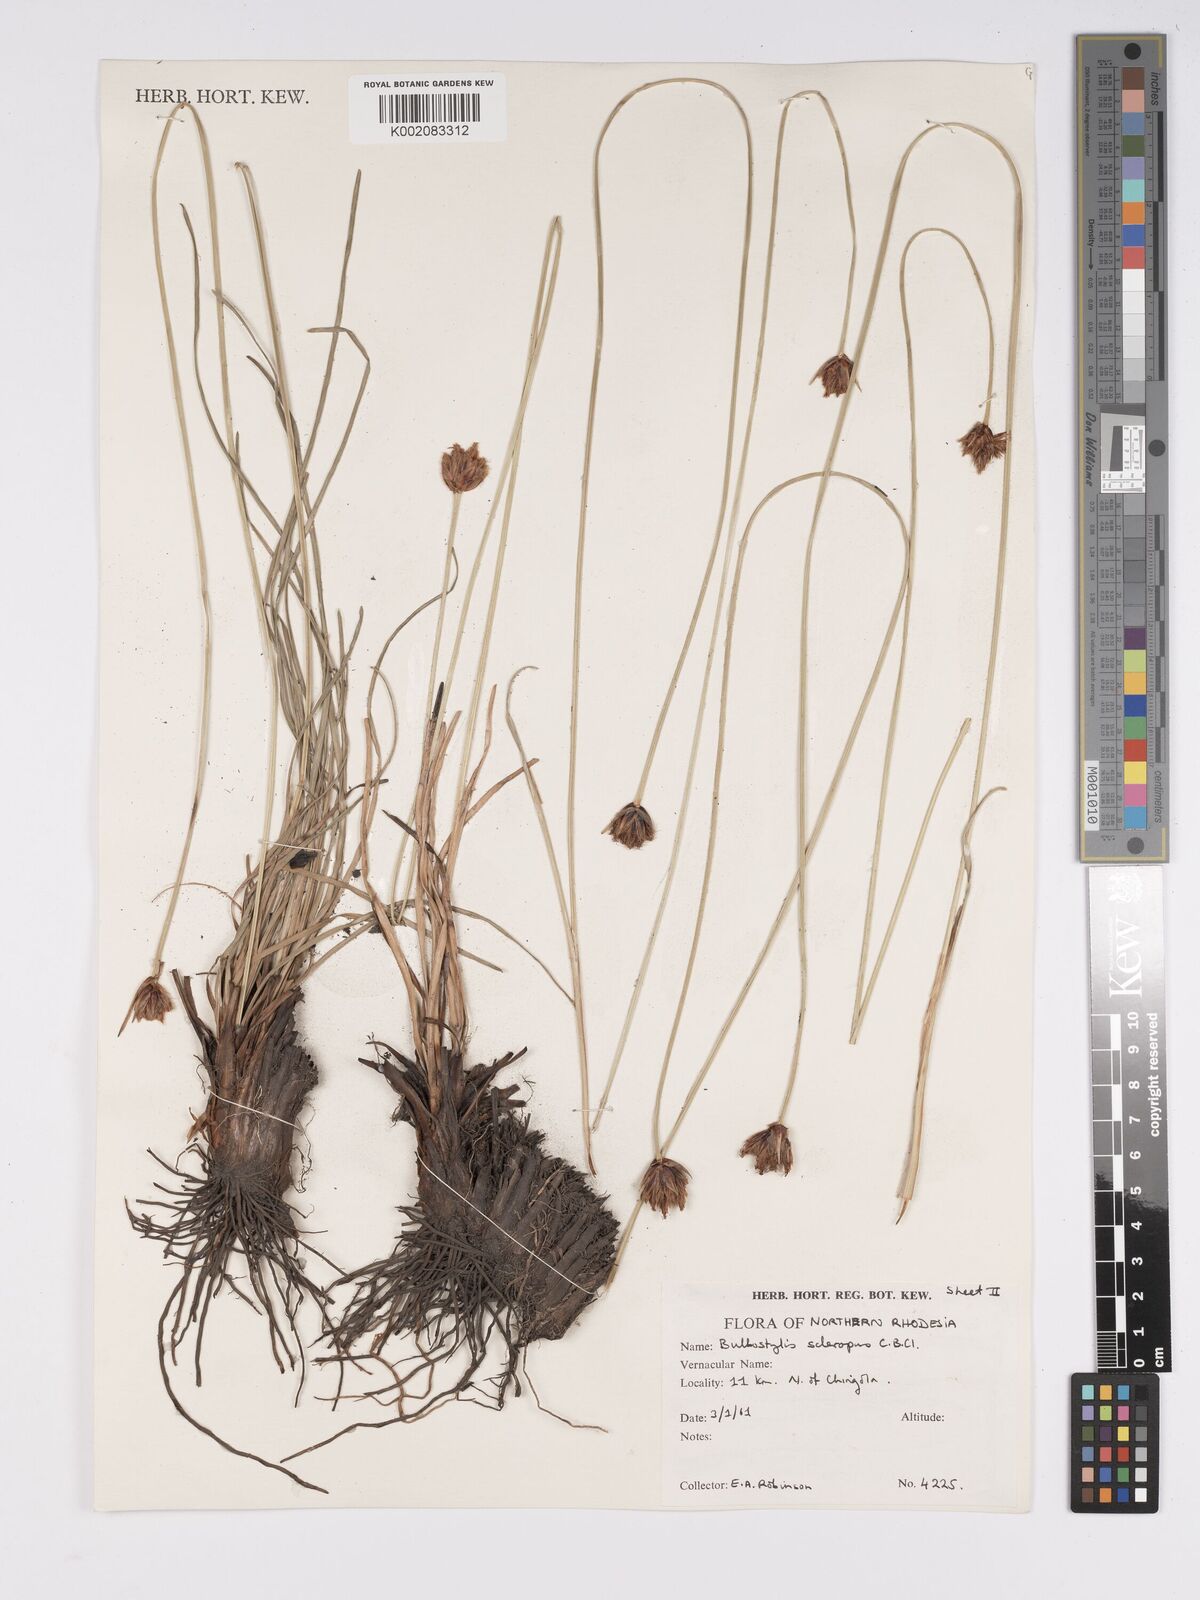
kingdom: Plantae
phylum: Tracheophyta
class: Liliopsida
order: Poales
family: Cyperaceae
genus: Bulbostylis
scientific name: Bulbostylis schoenoides
